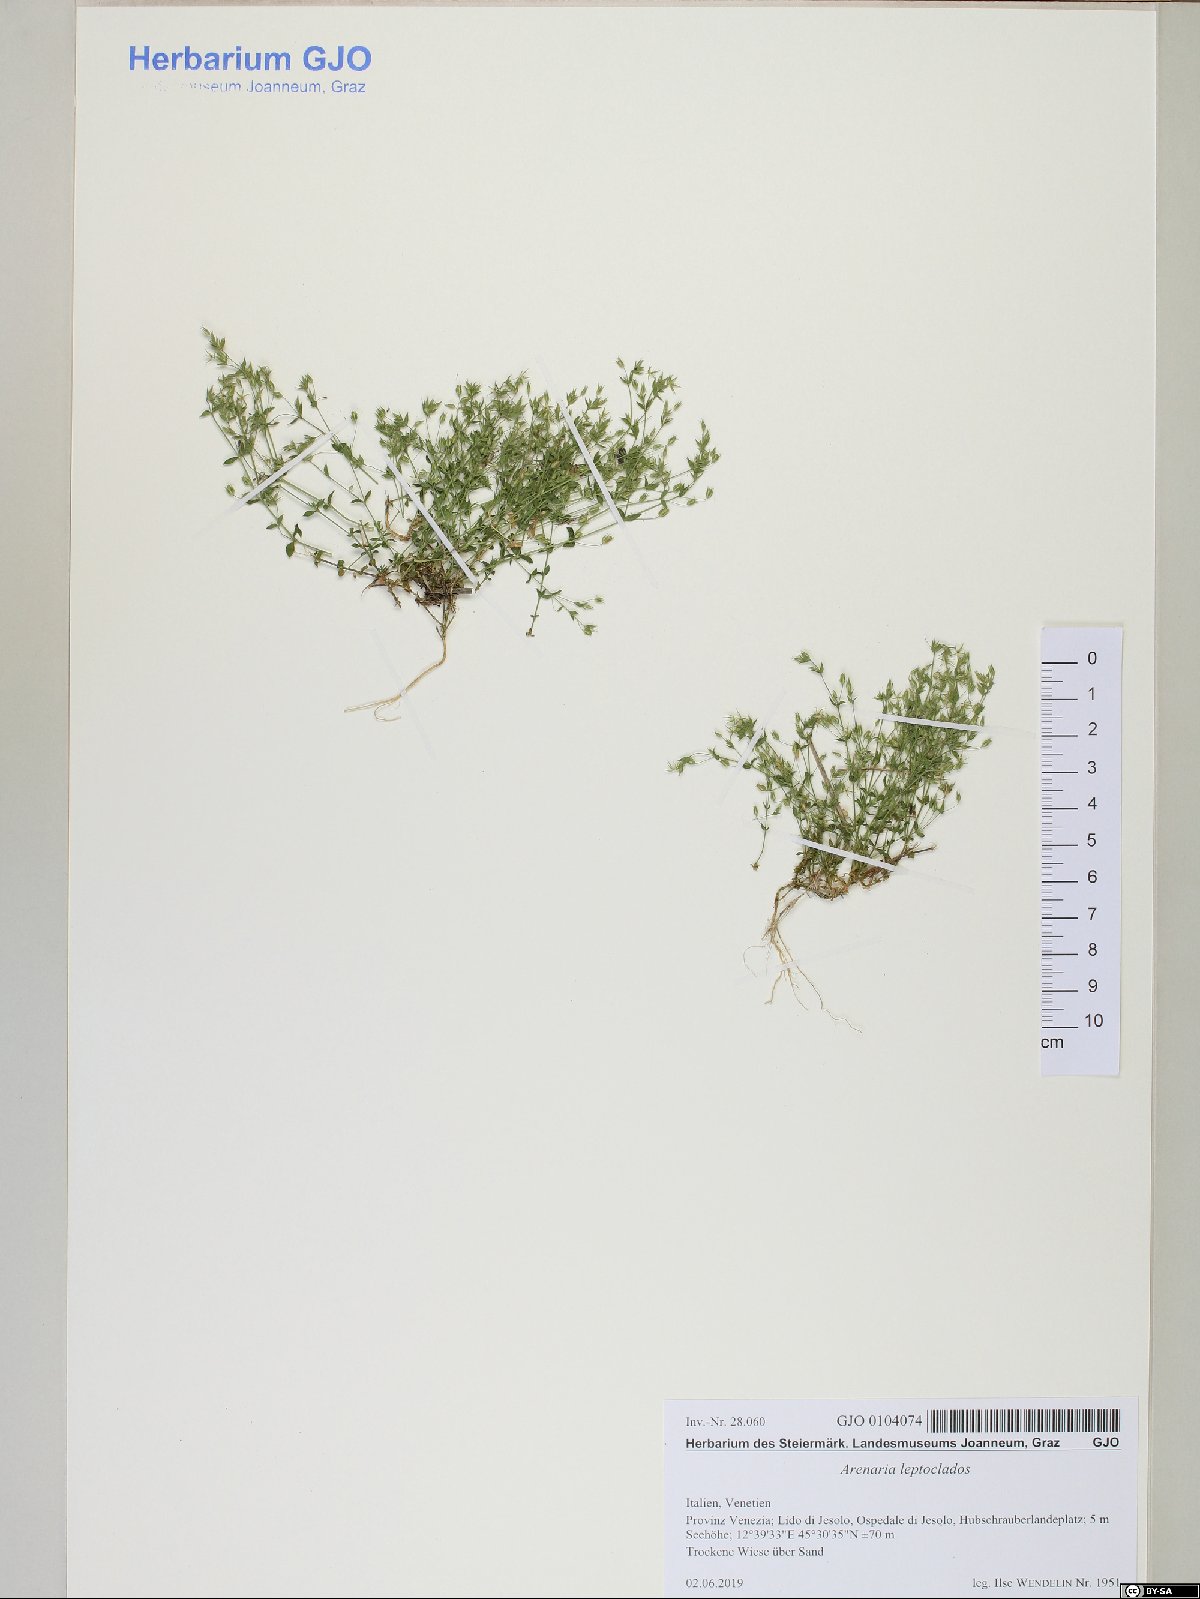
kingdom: Plantae
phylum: Tracheophyta
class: Magnoliopsida
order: Caryophyllales
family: Caryophyllaceae
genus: Arenaria
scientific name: Arenaria leptoclados
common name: Thyme-leaved sandwort
